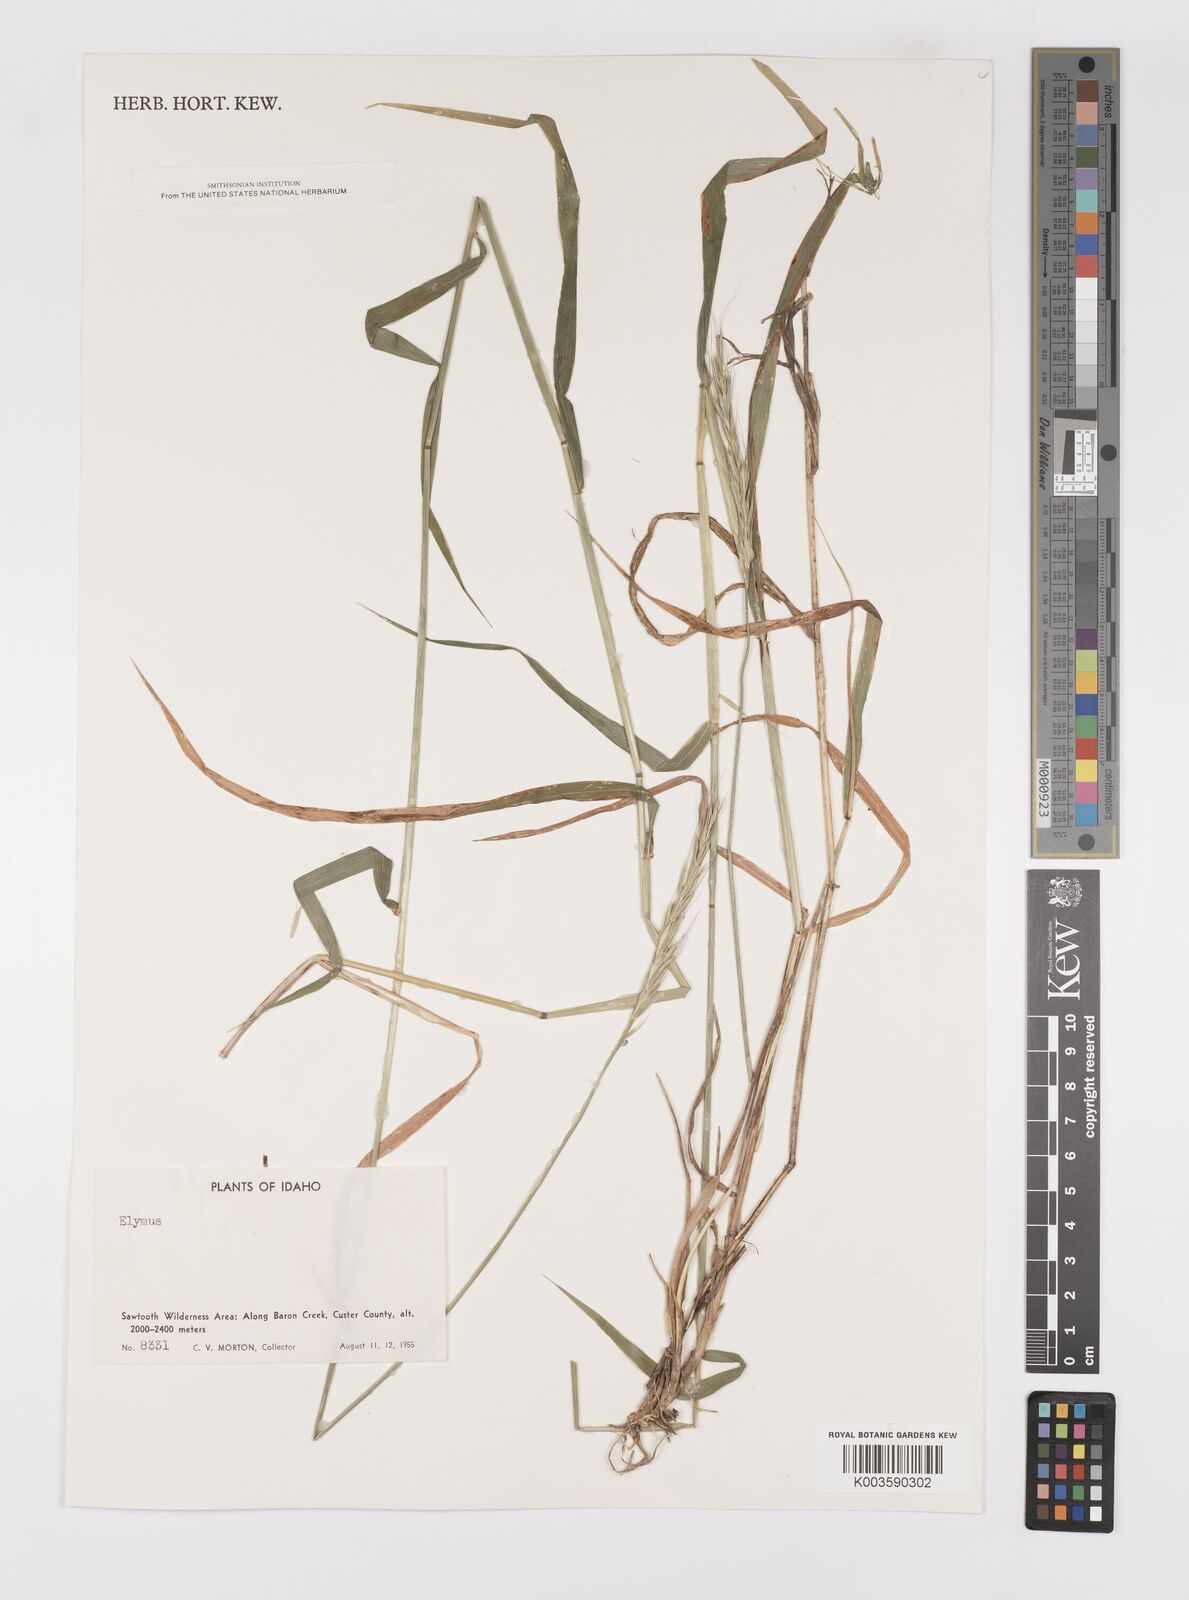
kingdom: Plantae
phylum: Tracheophyta
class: Liliopsida
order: Poales
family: Poaceae
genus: Elymus
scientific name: Elymus
